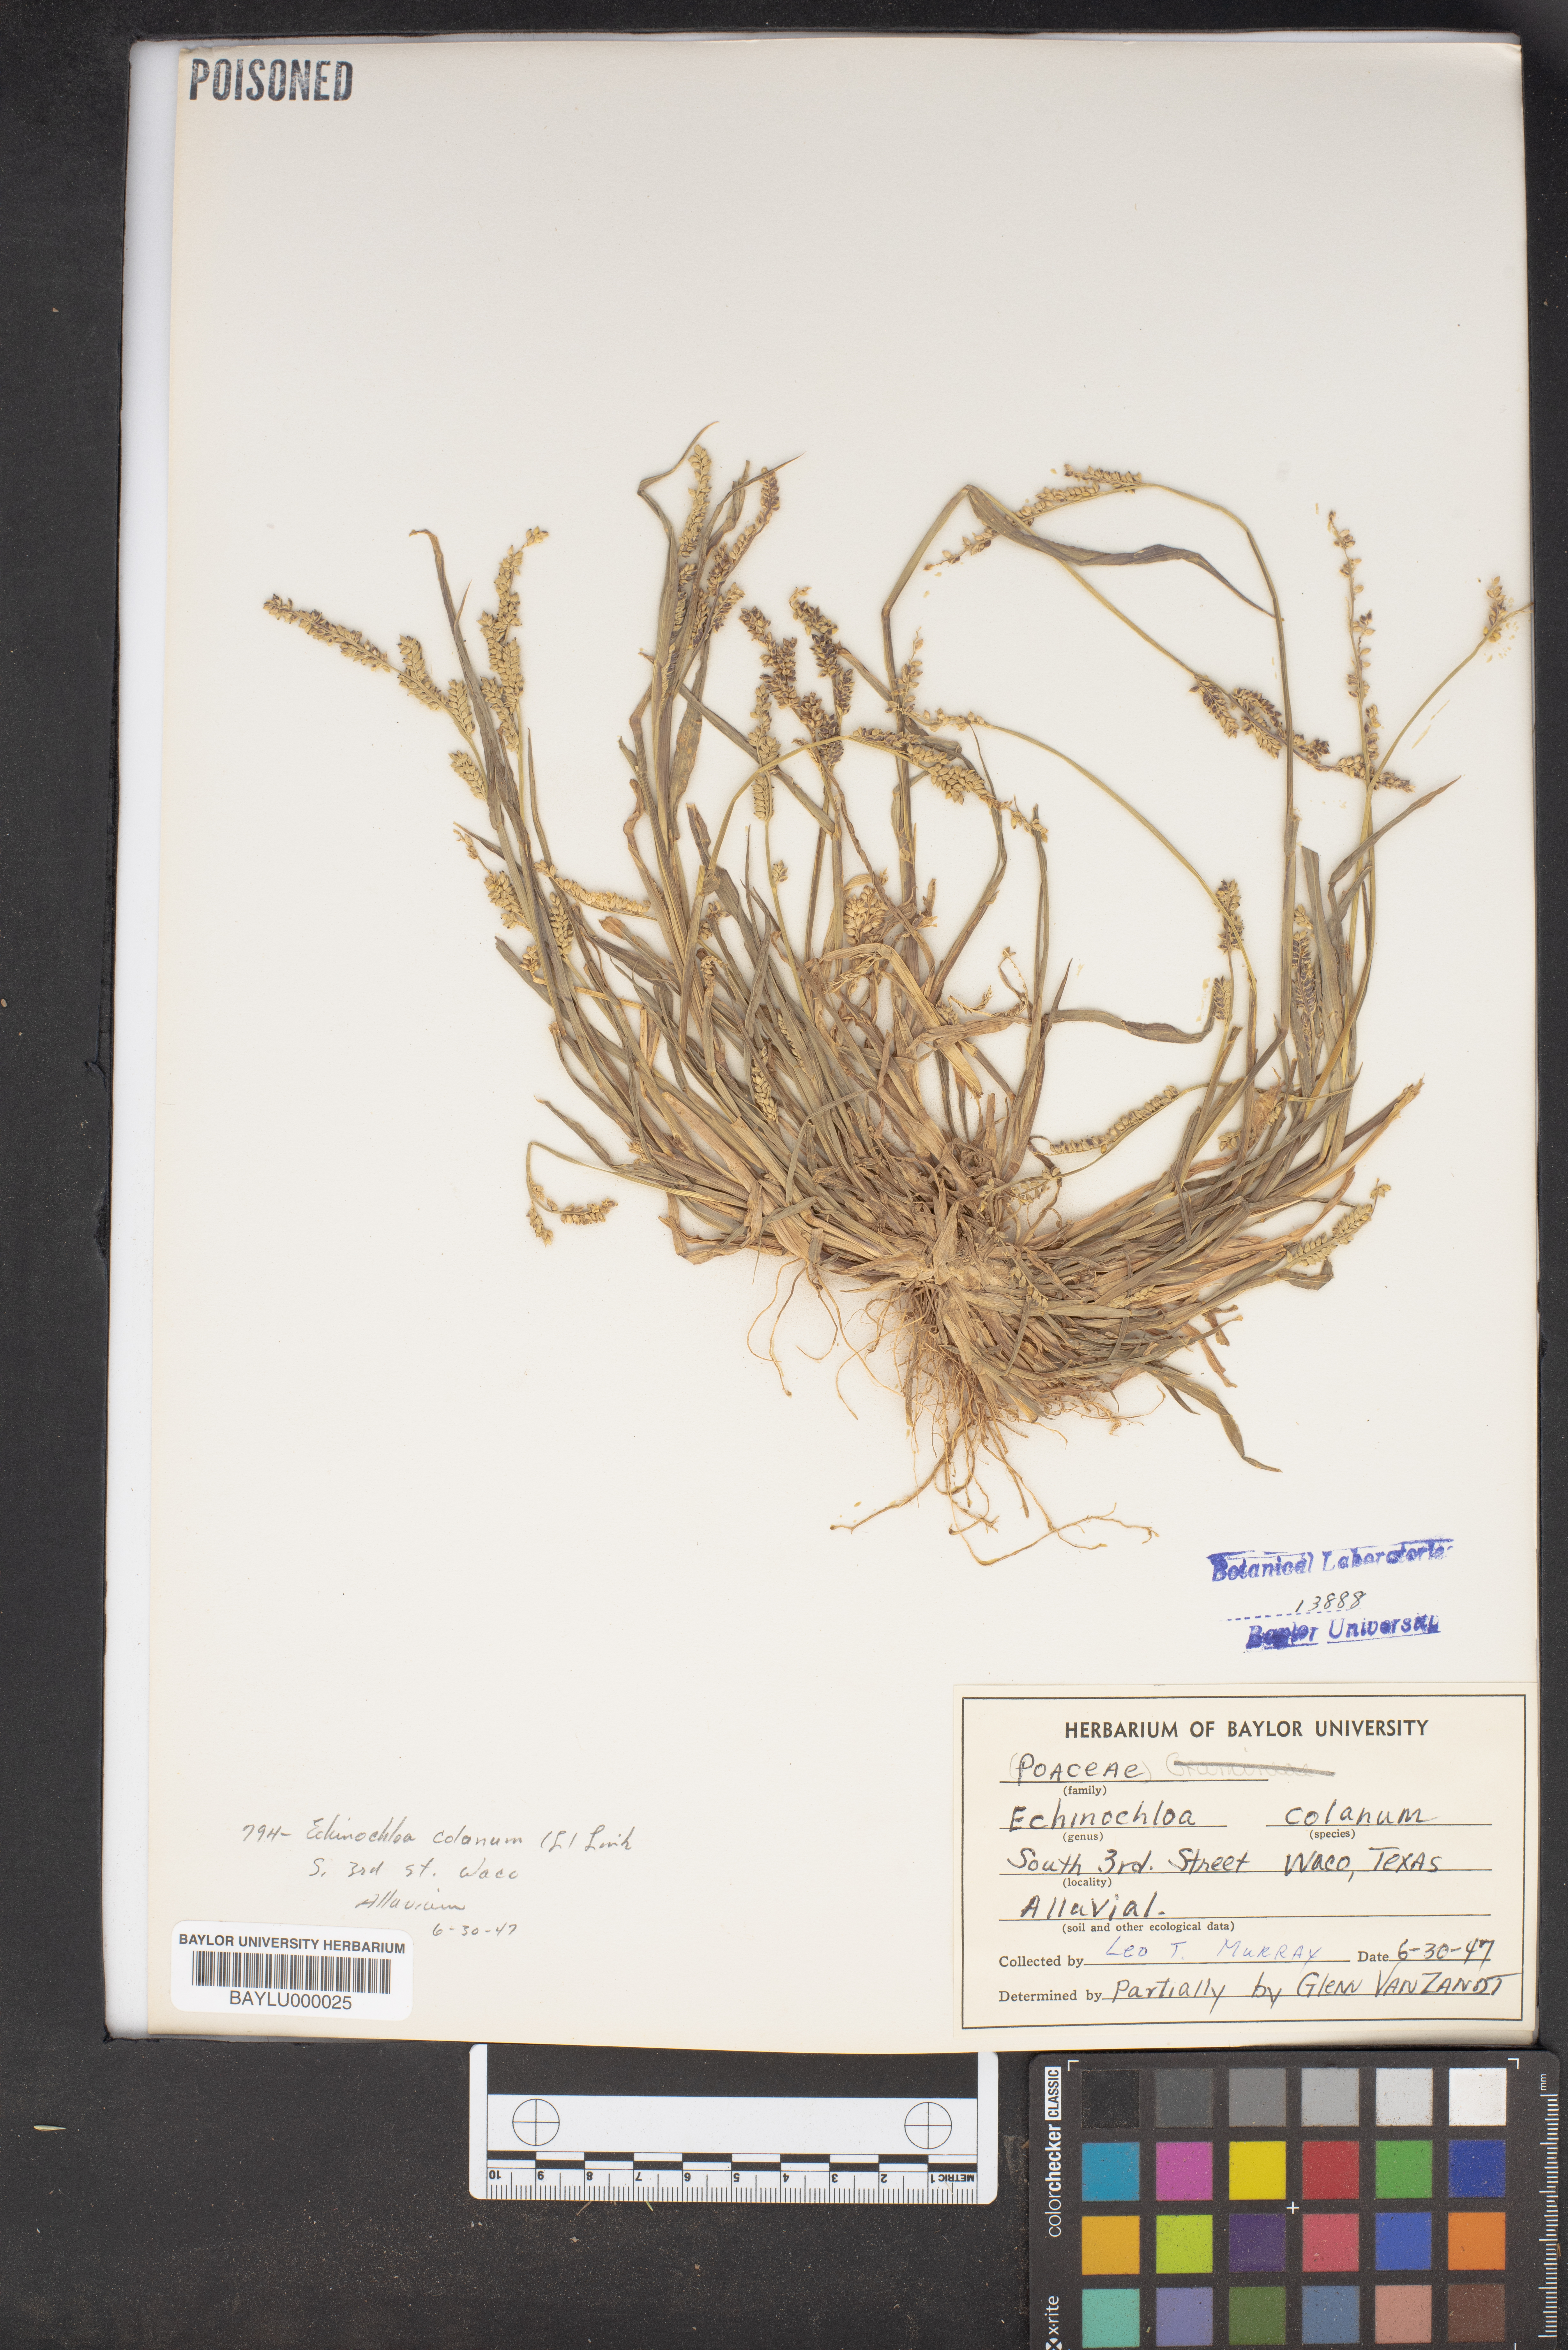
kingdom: Plantae
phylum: Tracheophyta
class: Liliopsida
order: Poales
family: Poaceae
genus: Echinochloa
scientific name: Echinochloa colonum
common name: Jungle rice
